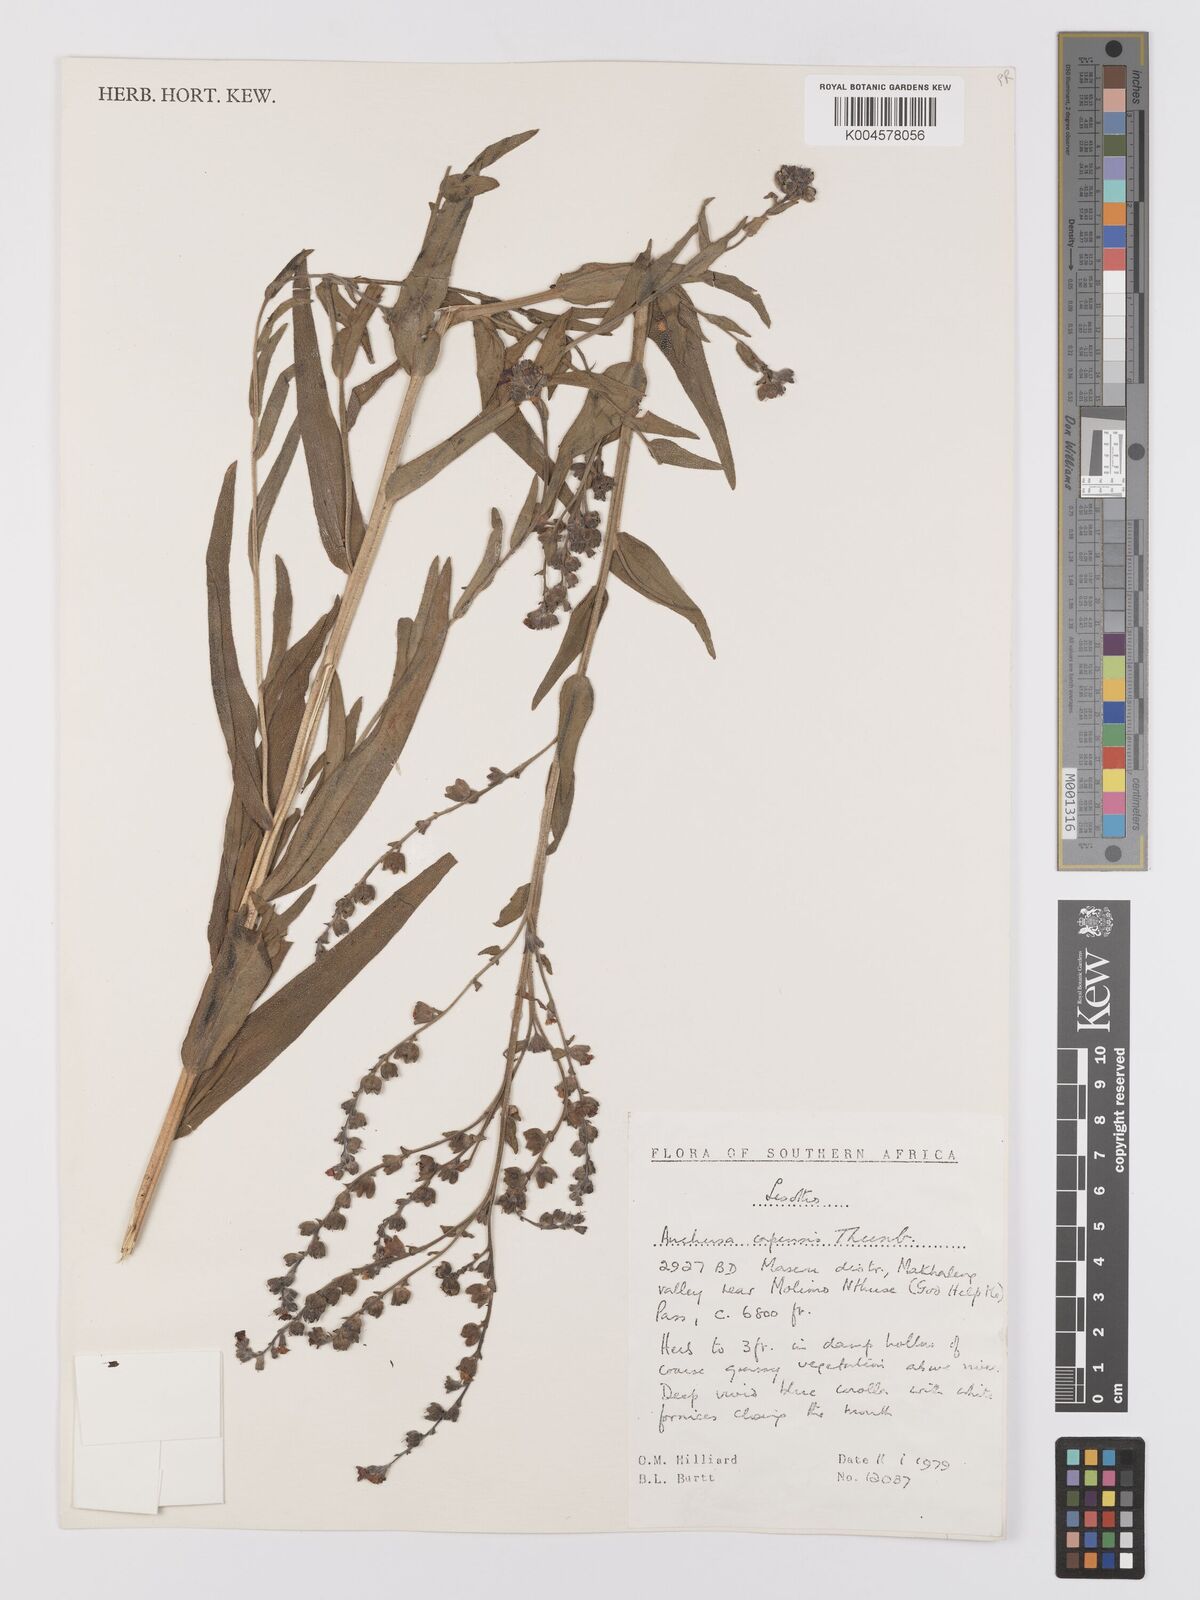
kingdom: Plantae
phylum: Tracheophyta
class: Magnoliopsida
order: Boraginales
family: Boraginaceae
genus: Anchusa
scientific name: Anchusa capensis
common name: Cape bugloss
